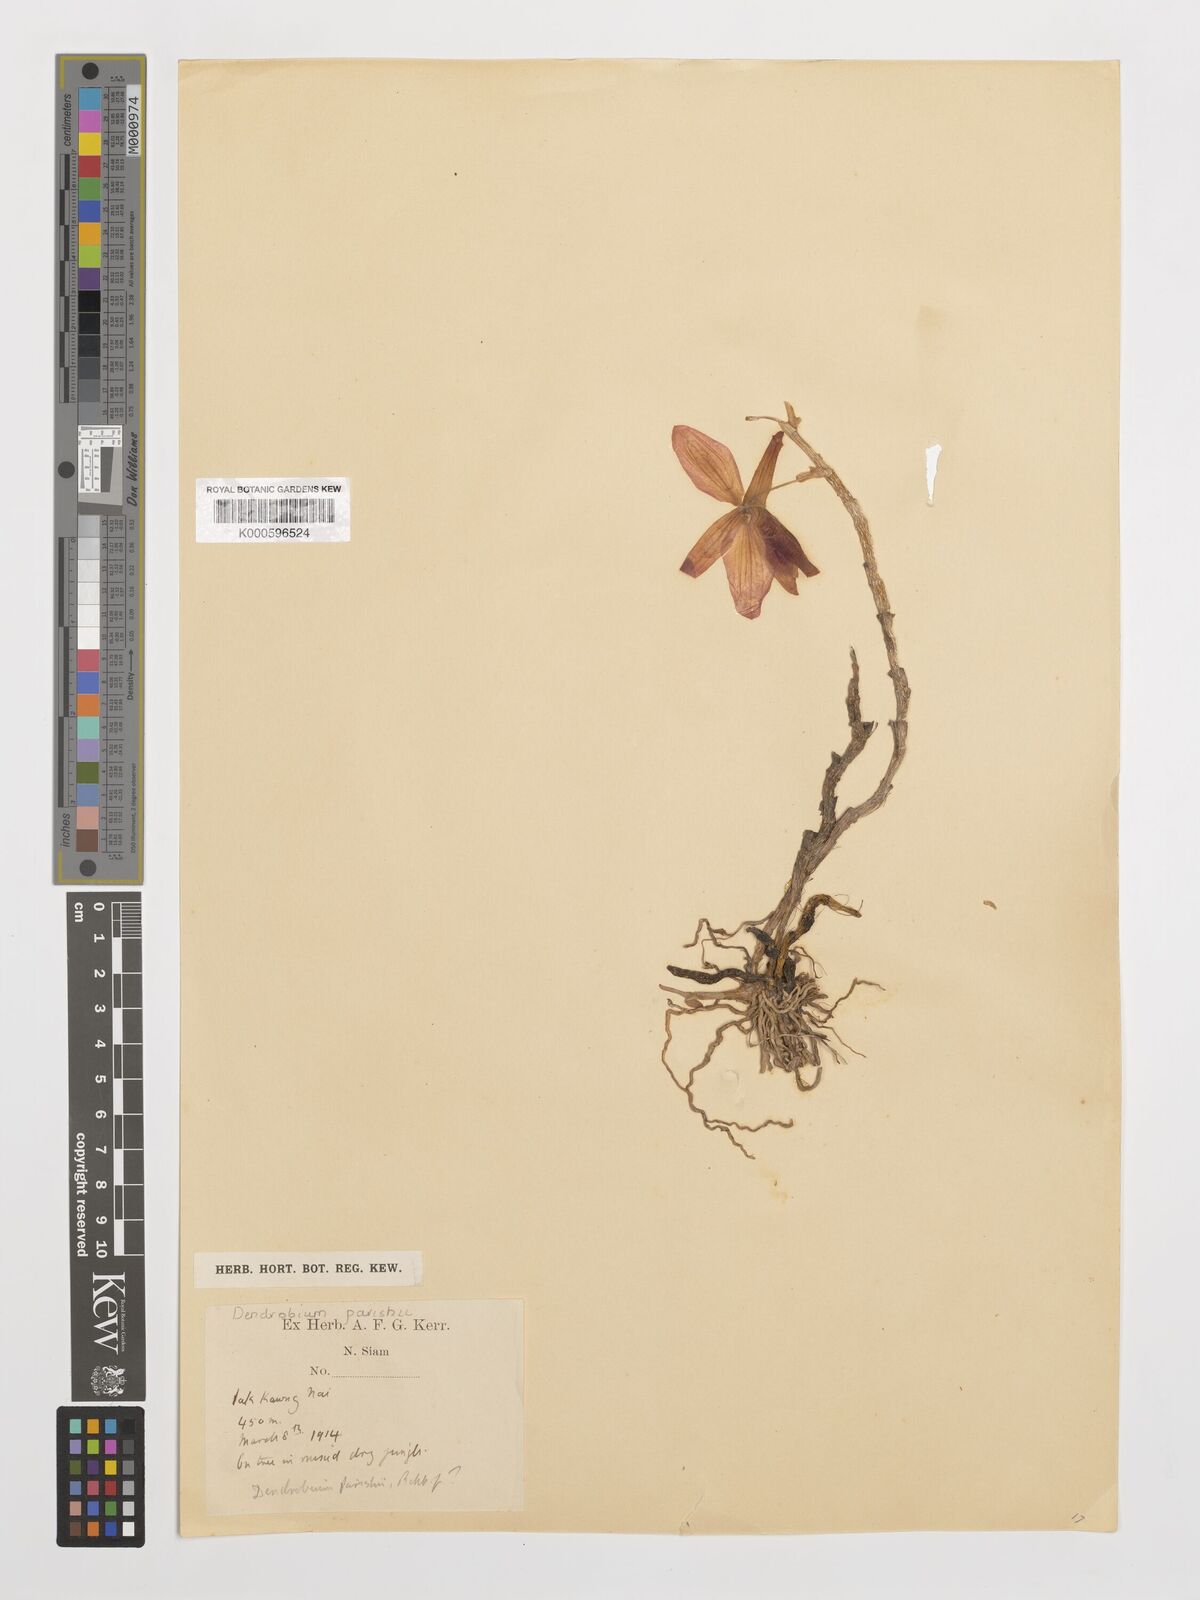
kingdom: Plantae
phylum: Tracheophyta
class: Liliopsida
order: Asparagales
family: Orchidaceae
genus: Dendrobium
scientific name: Dendrobium
